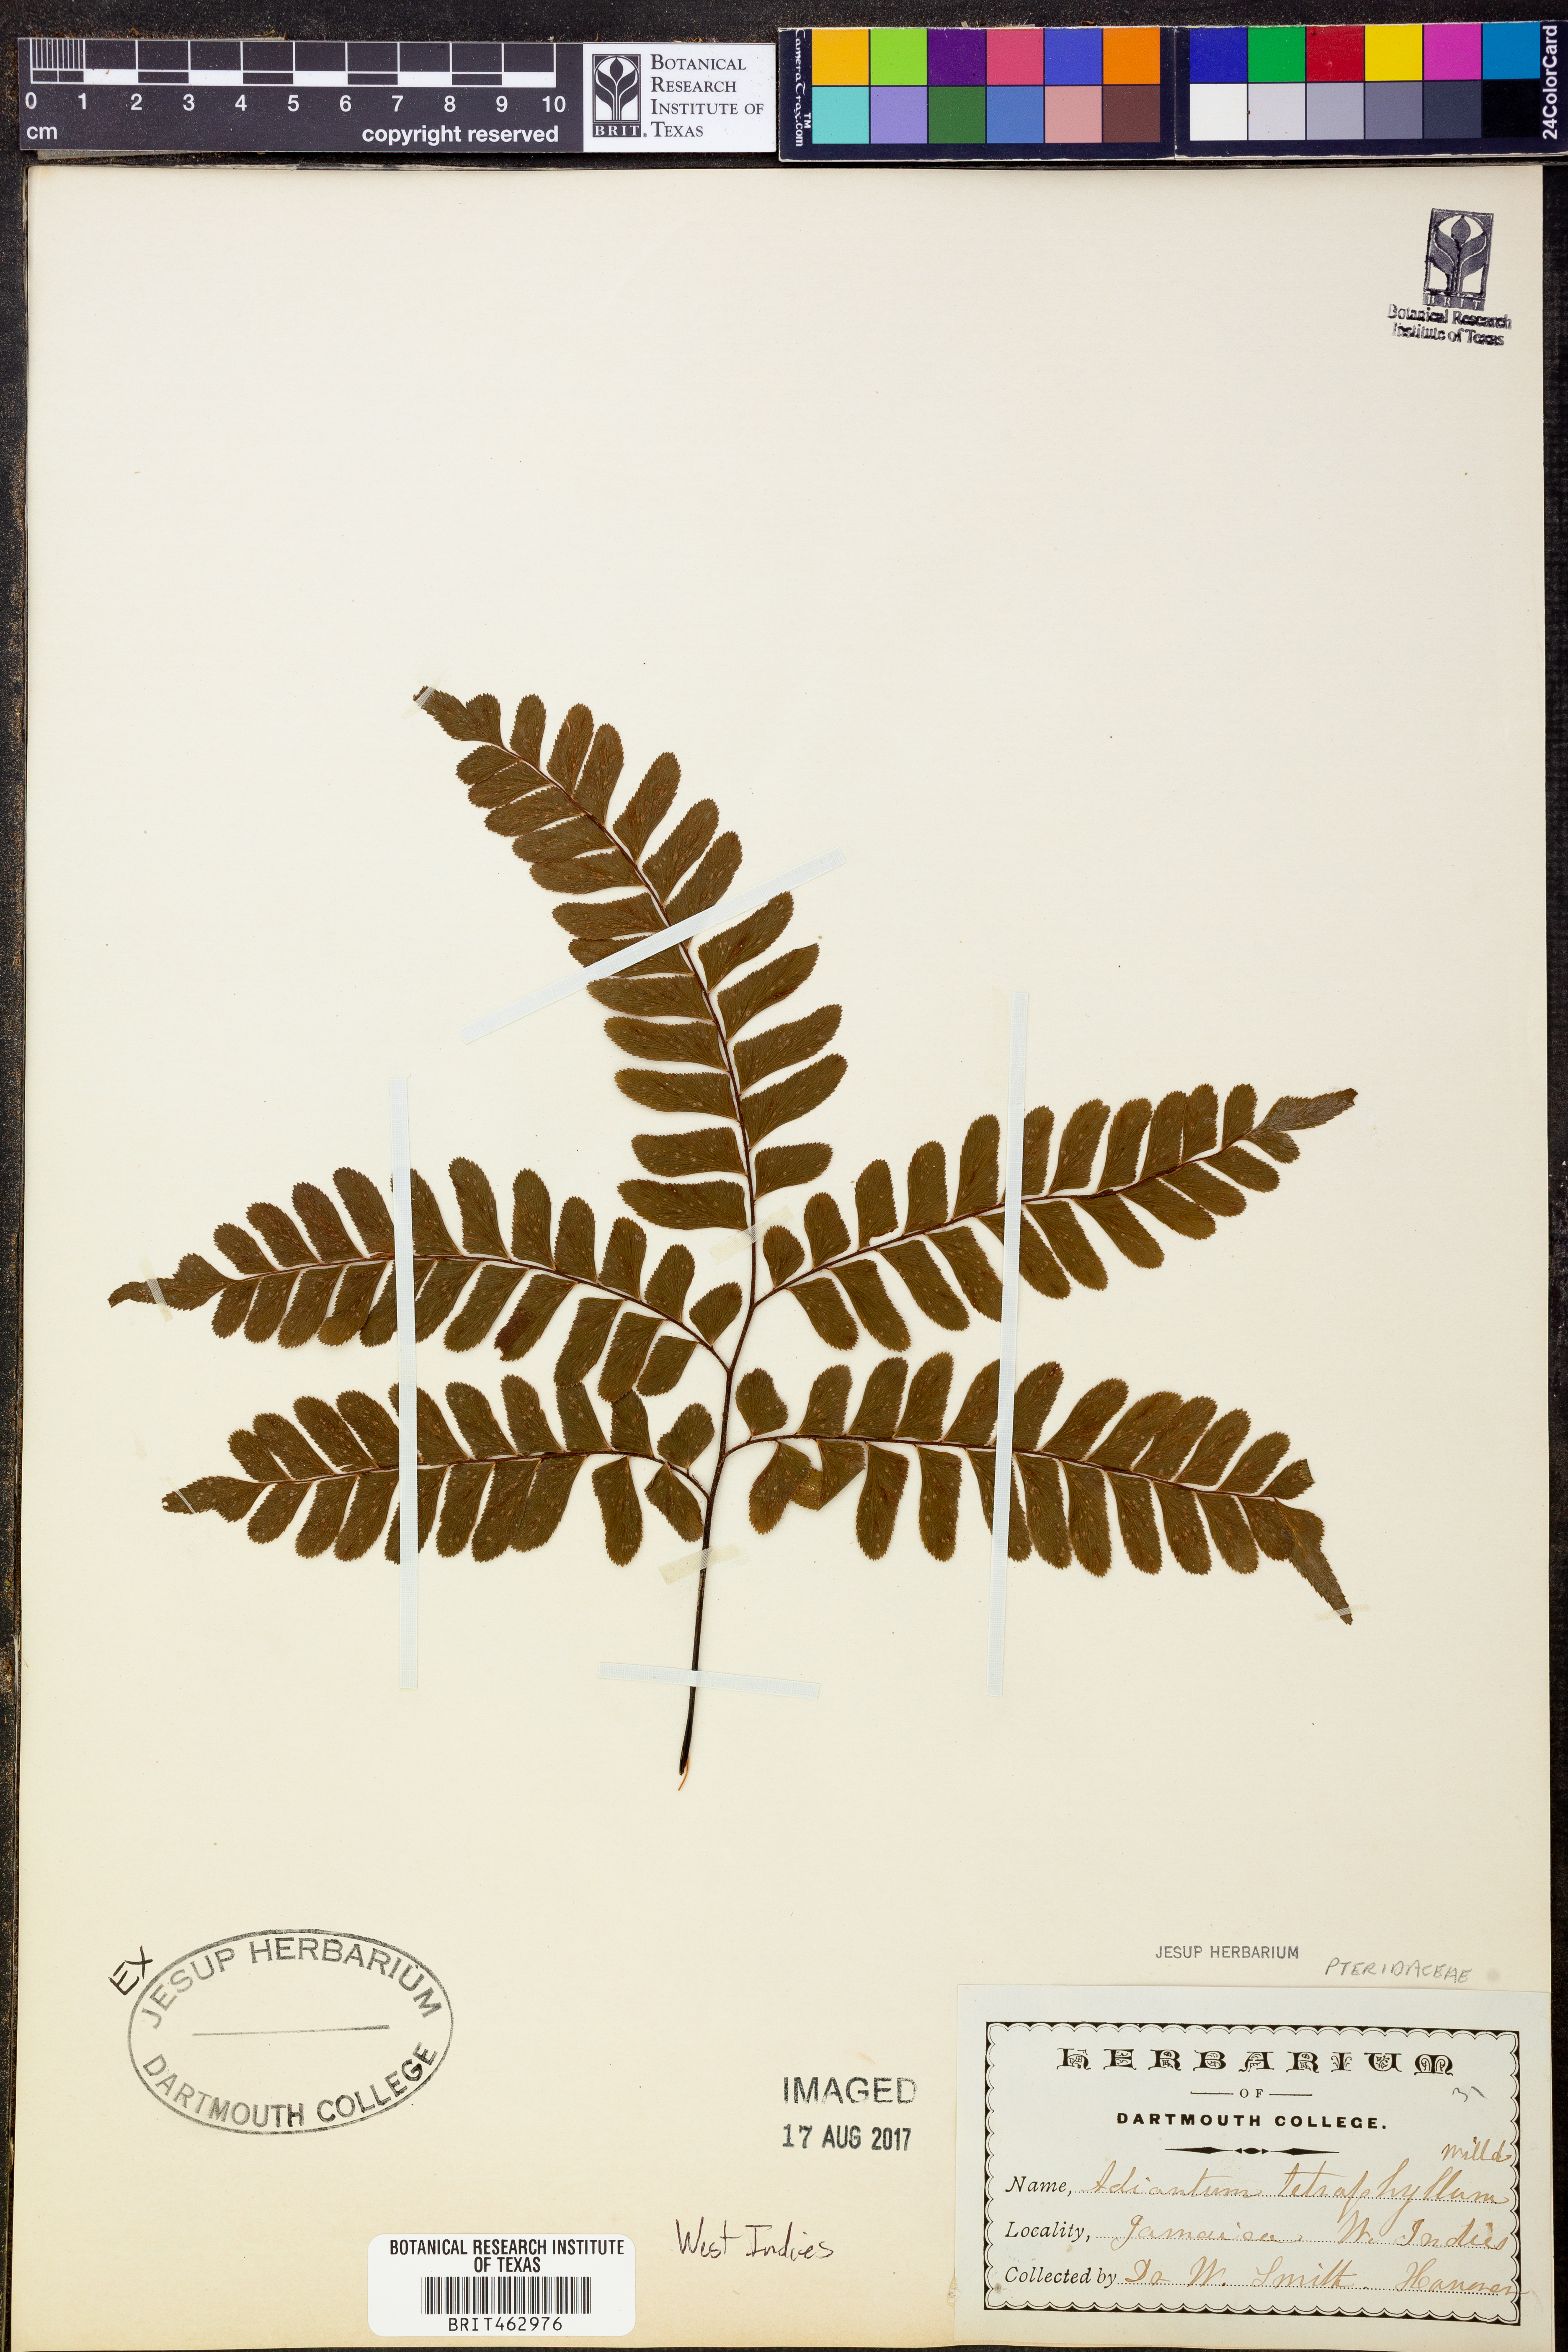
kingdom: Plantae
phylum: Tracheophyta
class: Polypodiopsida
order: Polypodiales
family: Pteridaceae
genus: Adiantum
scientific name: Adiantum tetraphyllum
